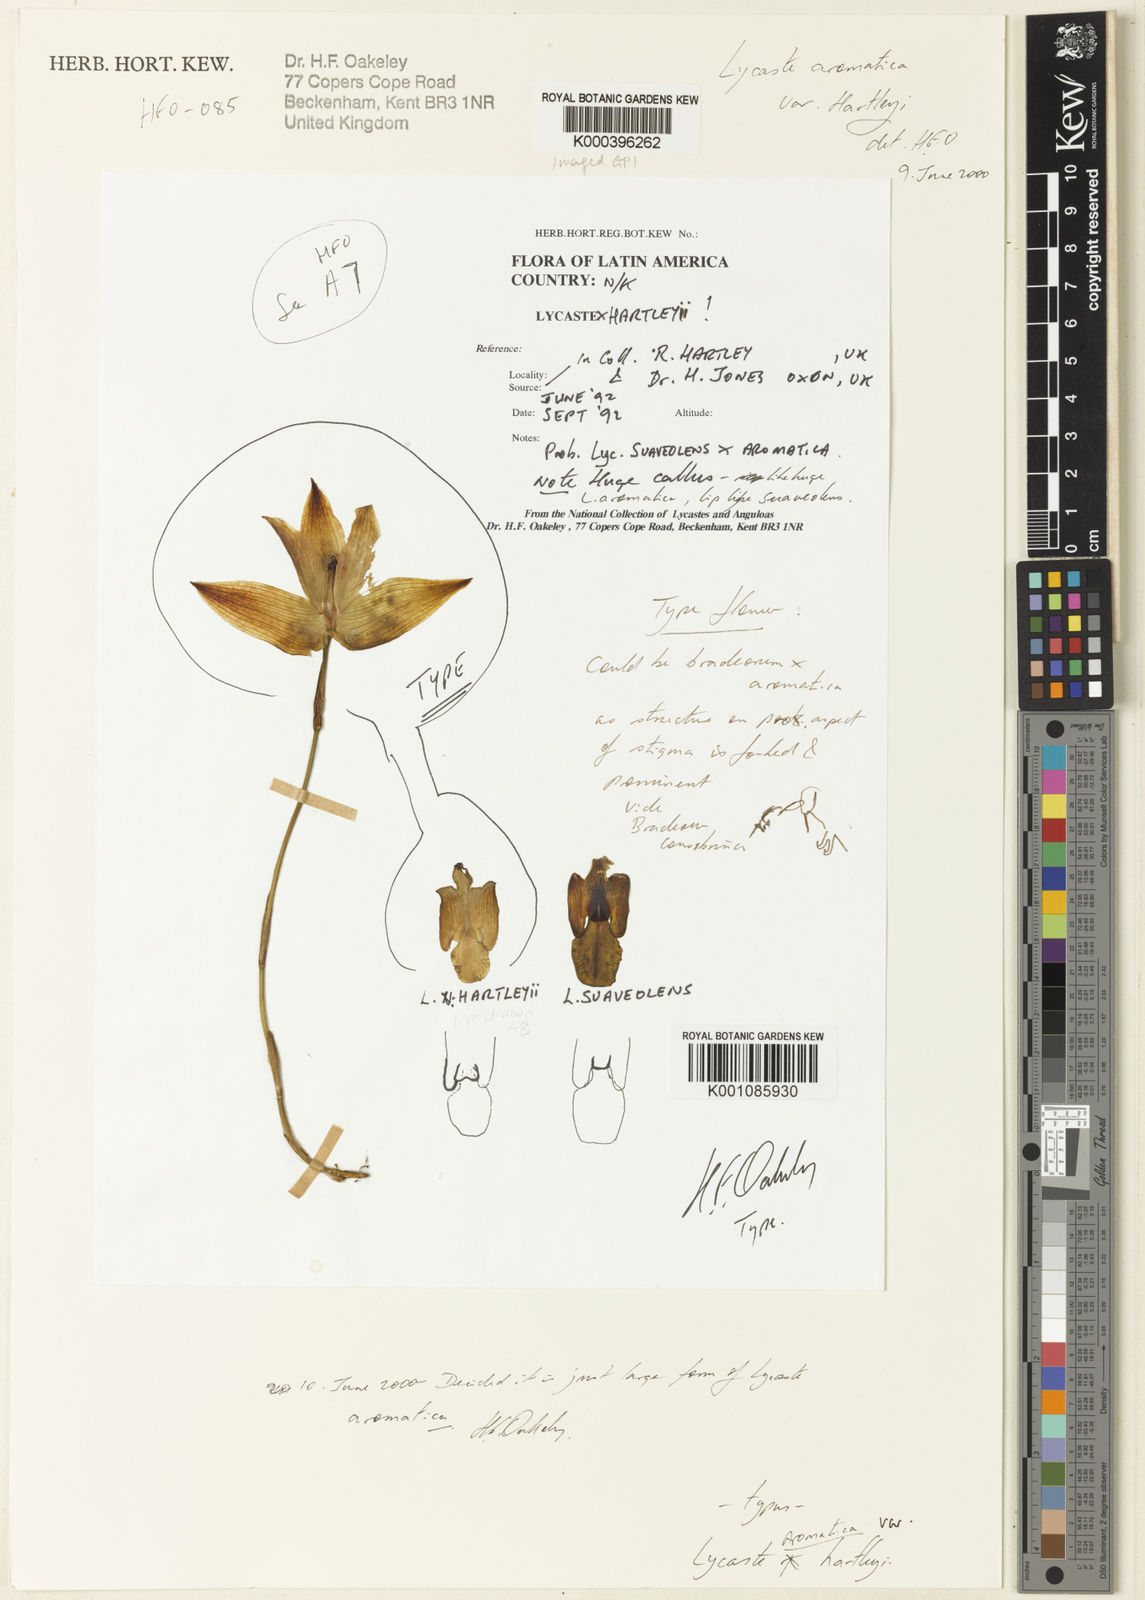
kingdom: Plantae
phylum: Tracheophyta
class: Liliopsida
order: Asparagales
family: Orchidaceae
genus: Lycaste
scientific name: Lycaste aromatica
